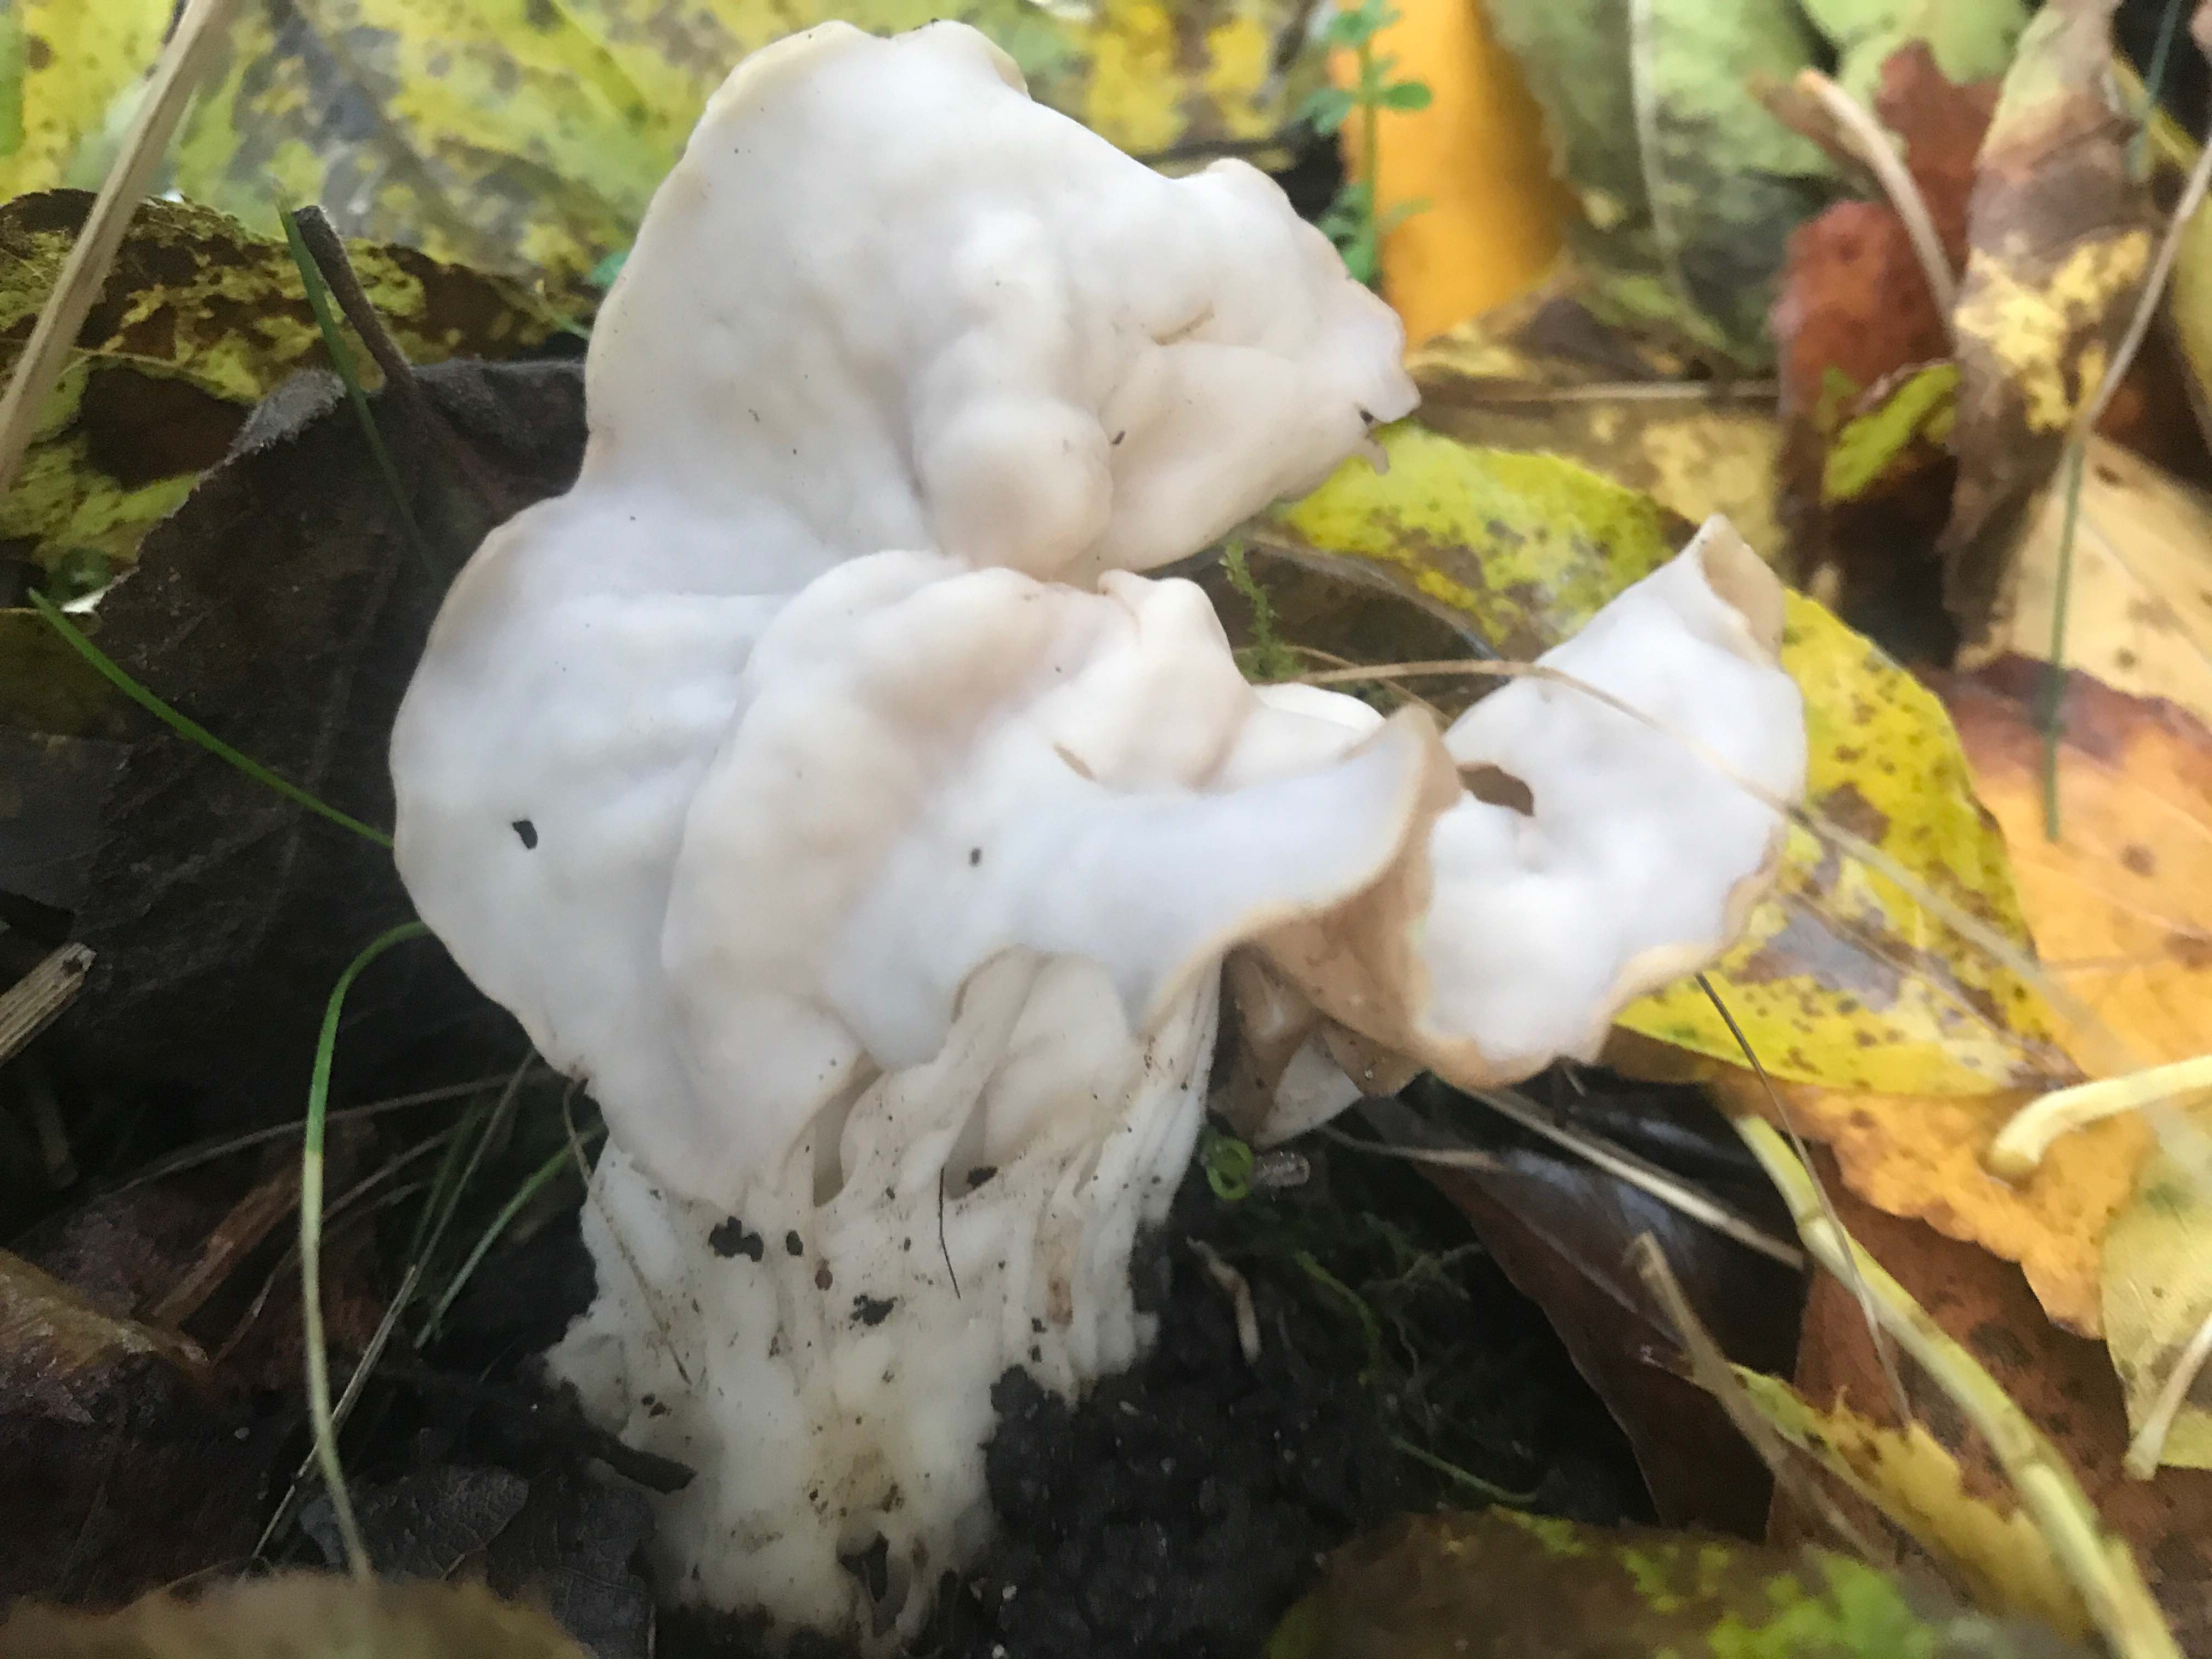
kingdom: Fungi
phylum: Ascomycota
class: Pezizomycetes
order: Pezizales
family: Helvellaceae
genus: Helvella
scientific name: Helvella crispa
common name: kruset foldhat
